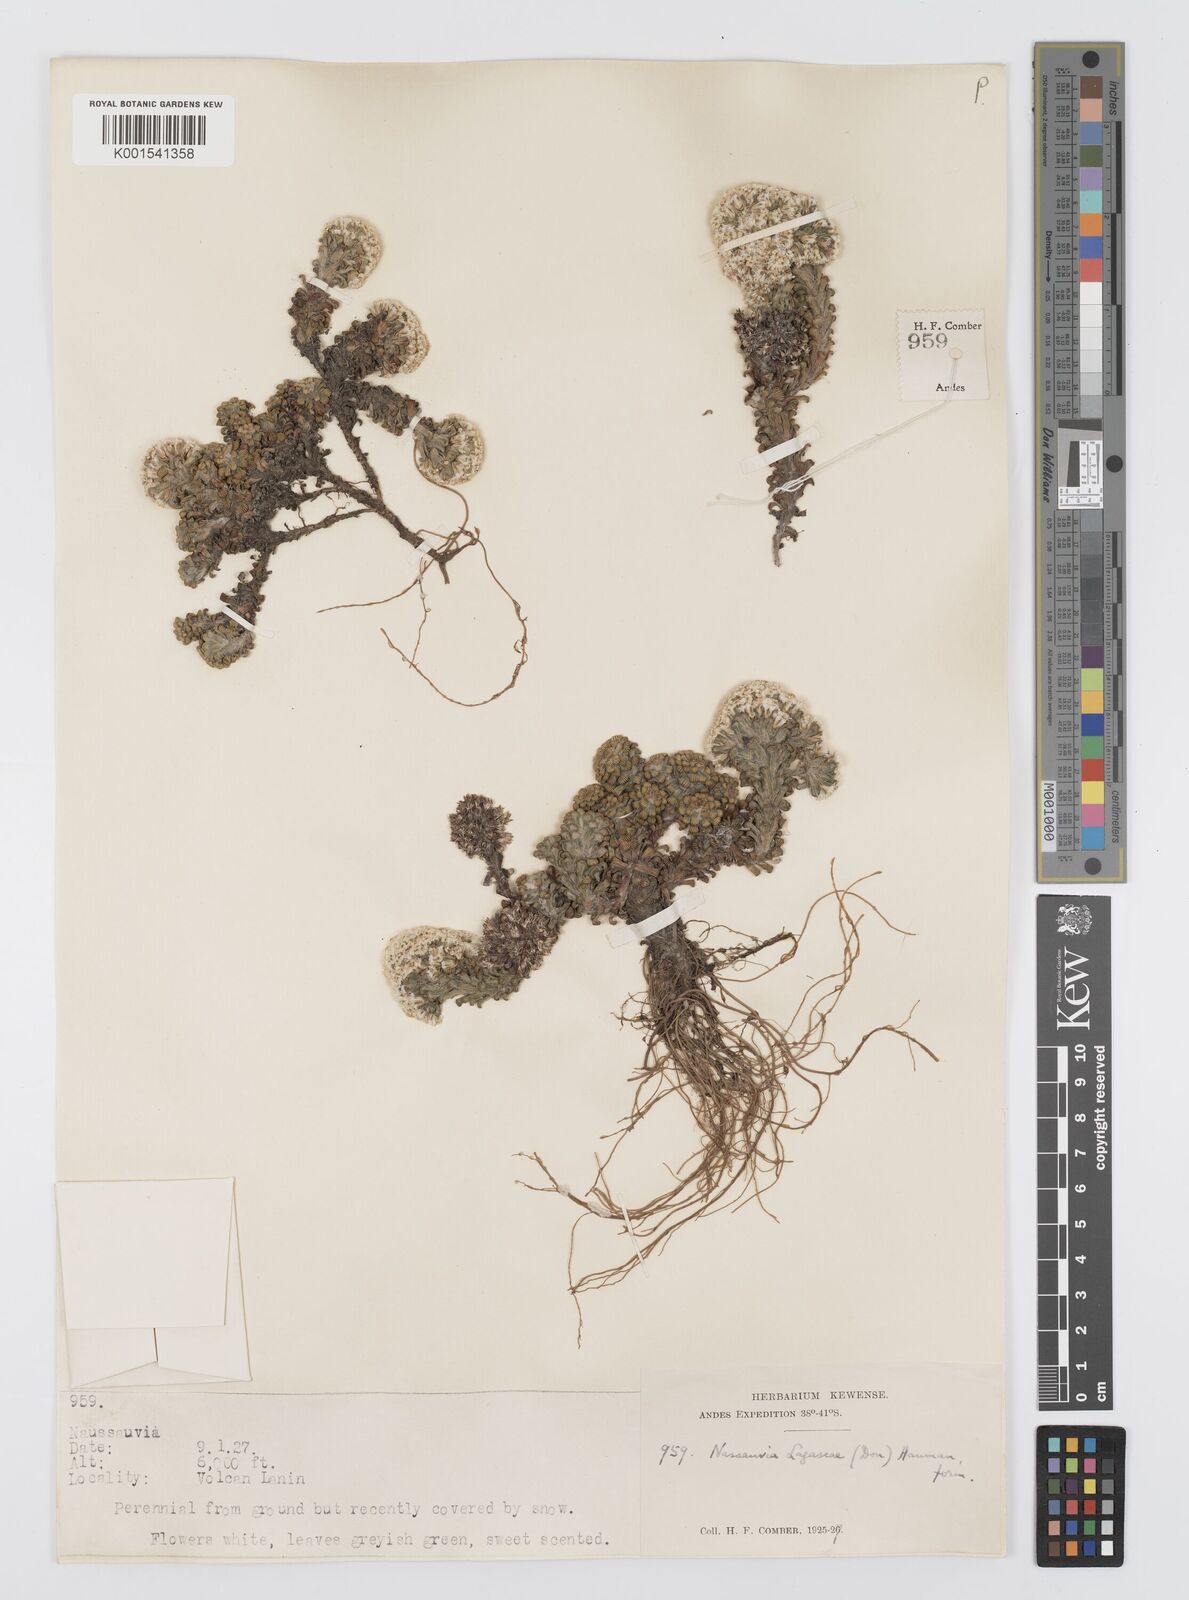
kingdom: Plantae
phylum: Tracheophyta
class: Magnoliopsida
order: Asterales
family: Asteraceae
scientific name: Asteraceae
